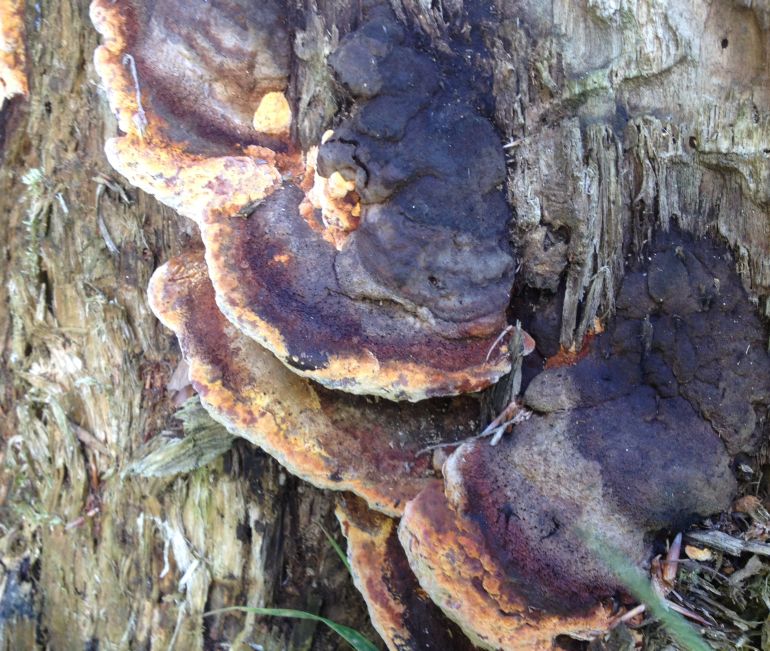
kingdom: Fungi
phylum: Basidiomycota
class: Agaricomycetes
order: Gloeophyllales
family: Gloeophyllaceae
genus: Gloeophyllum
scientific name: Gloeophyllum odoratum
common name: duftende korkhat
